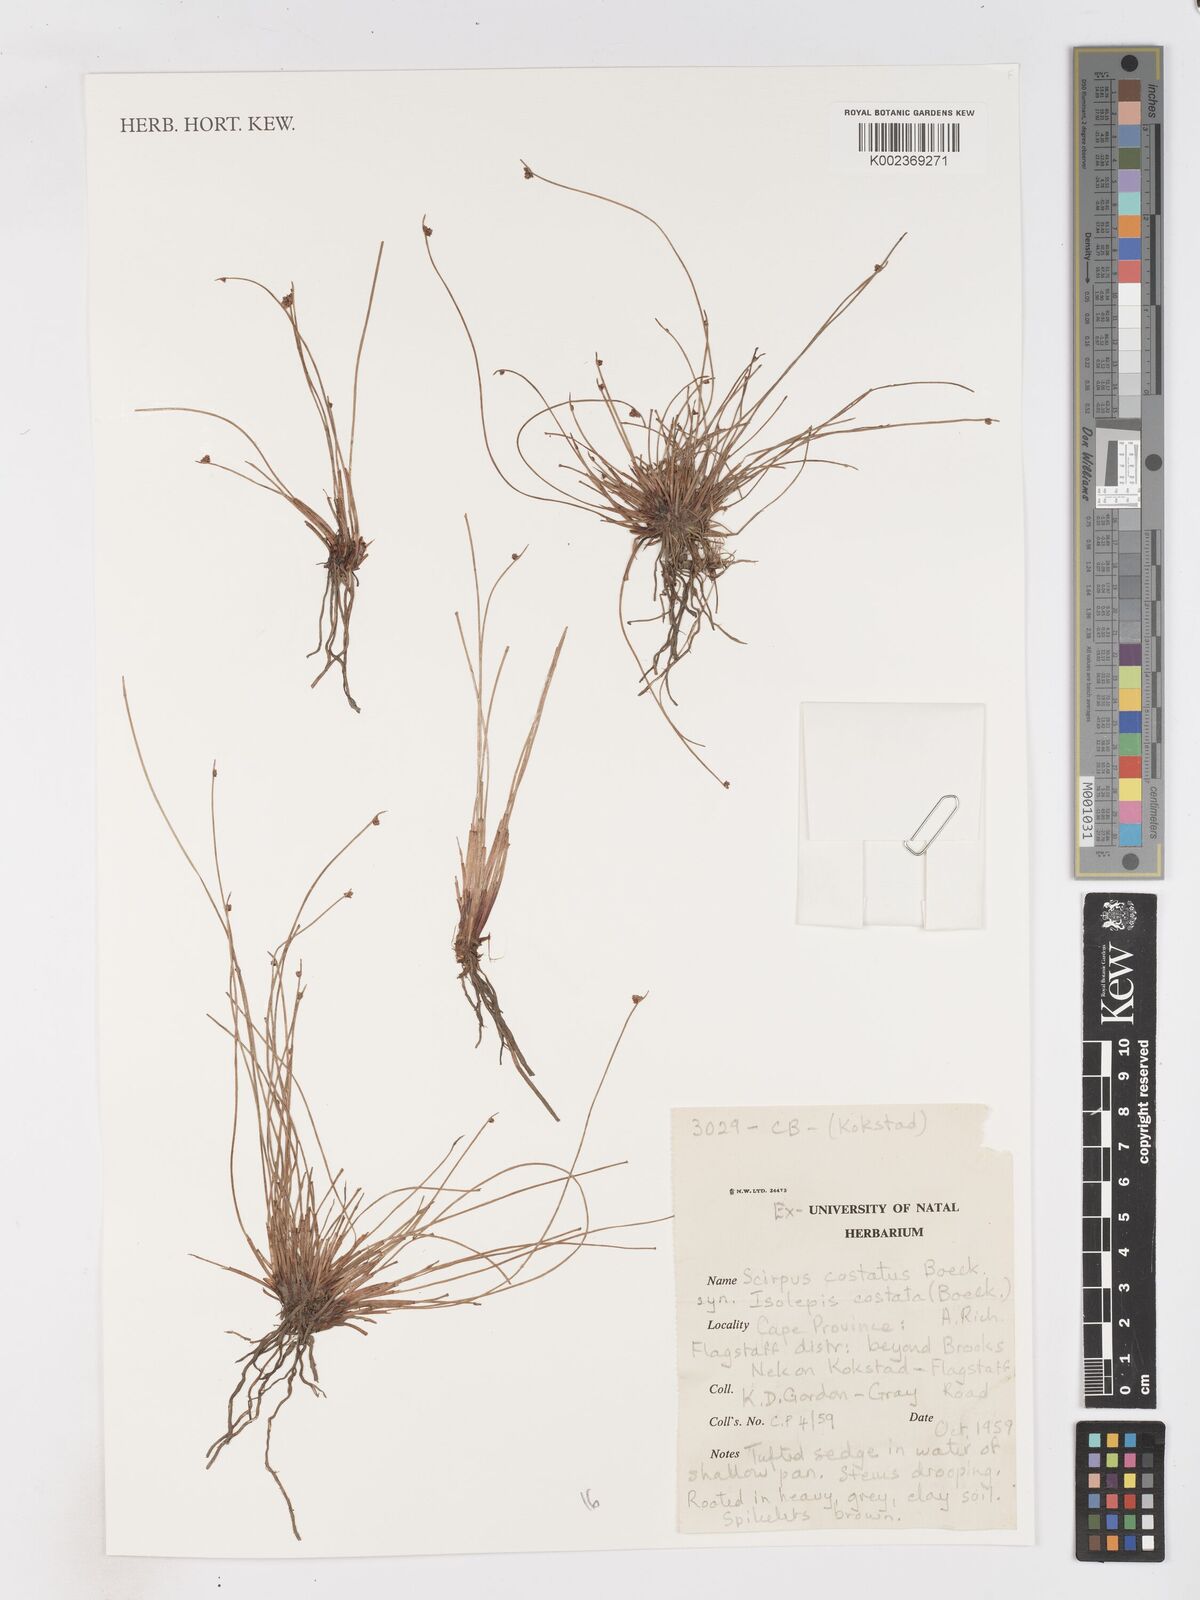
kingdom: Plantae
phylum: Tracheophyta
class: Liliopsida
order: Poales
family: Cyperaceae
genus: Isolepis
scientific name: Isolepis costata
